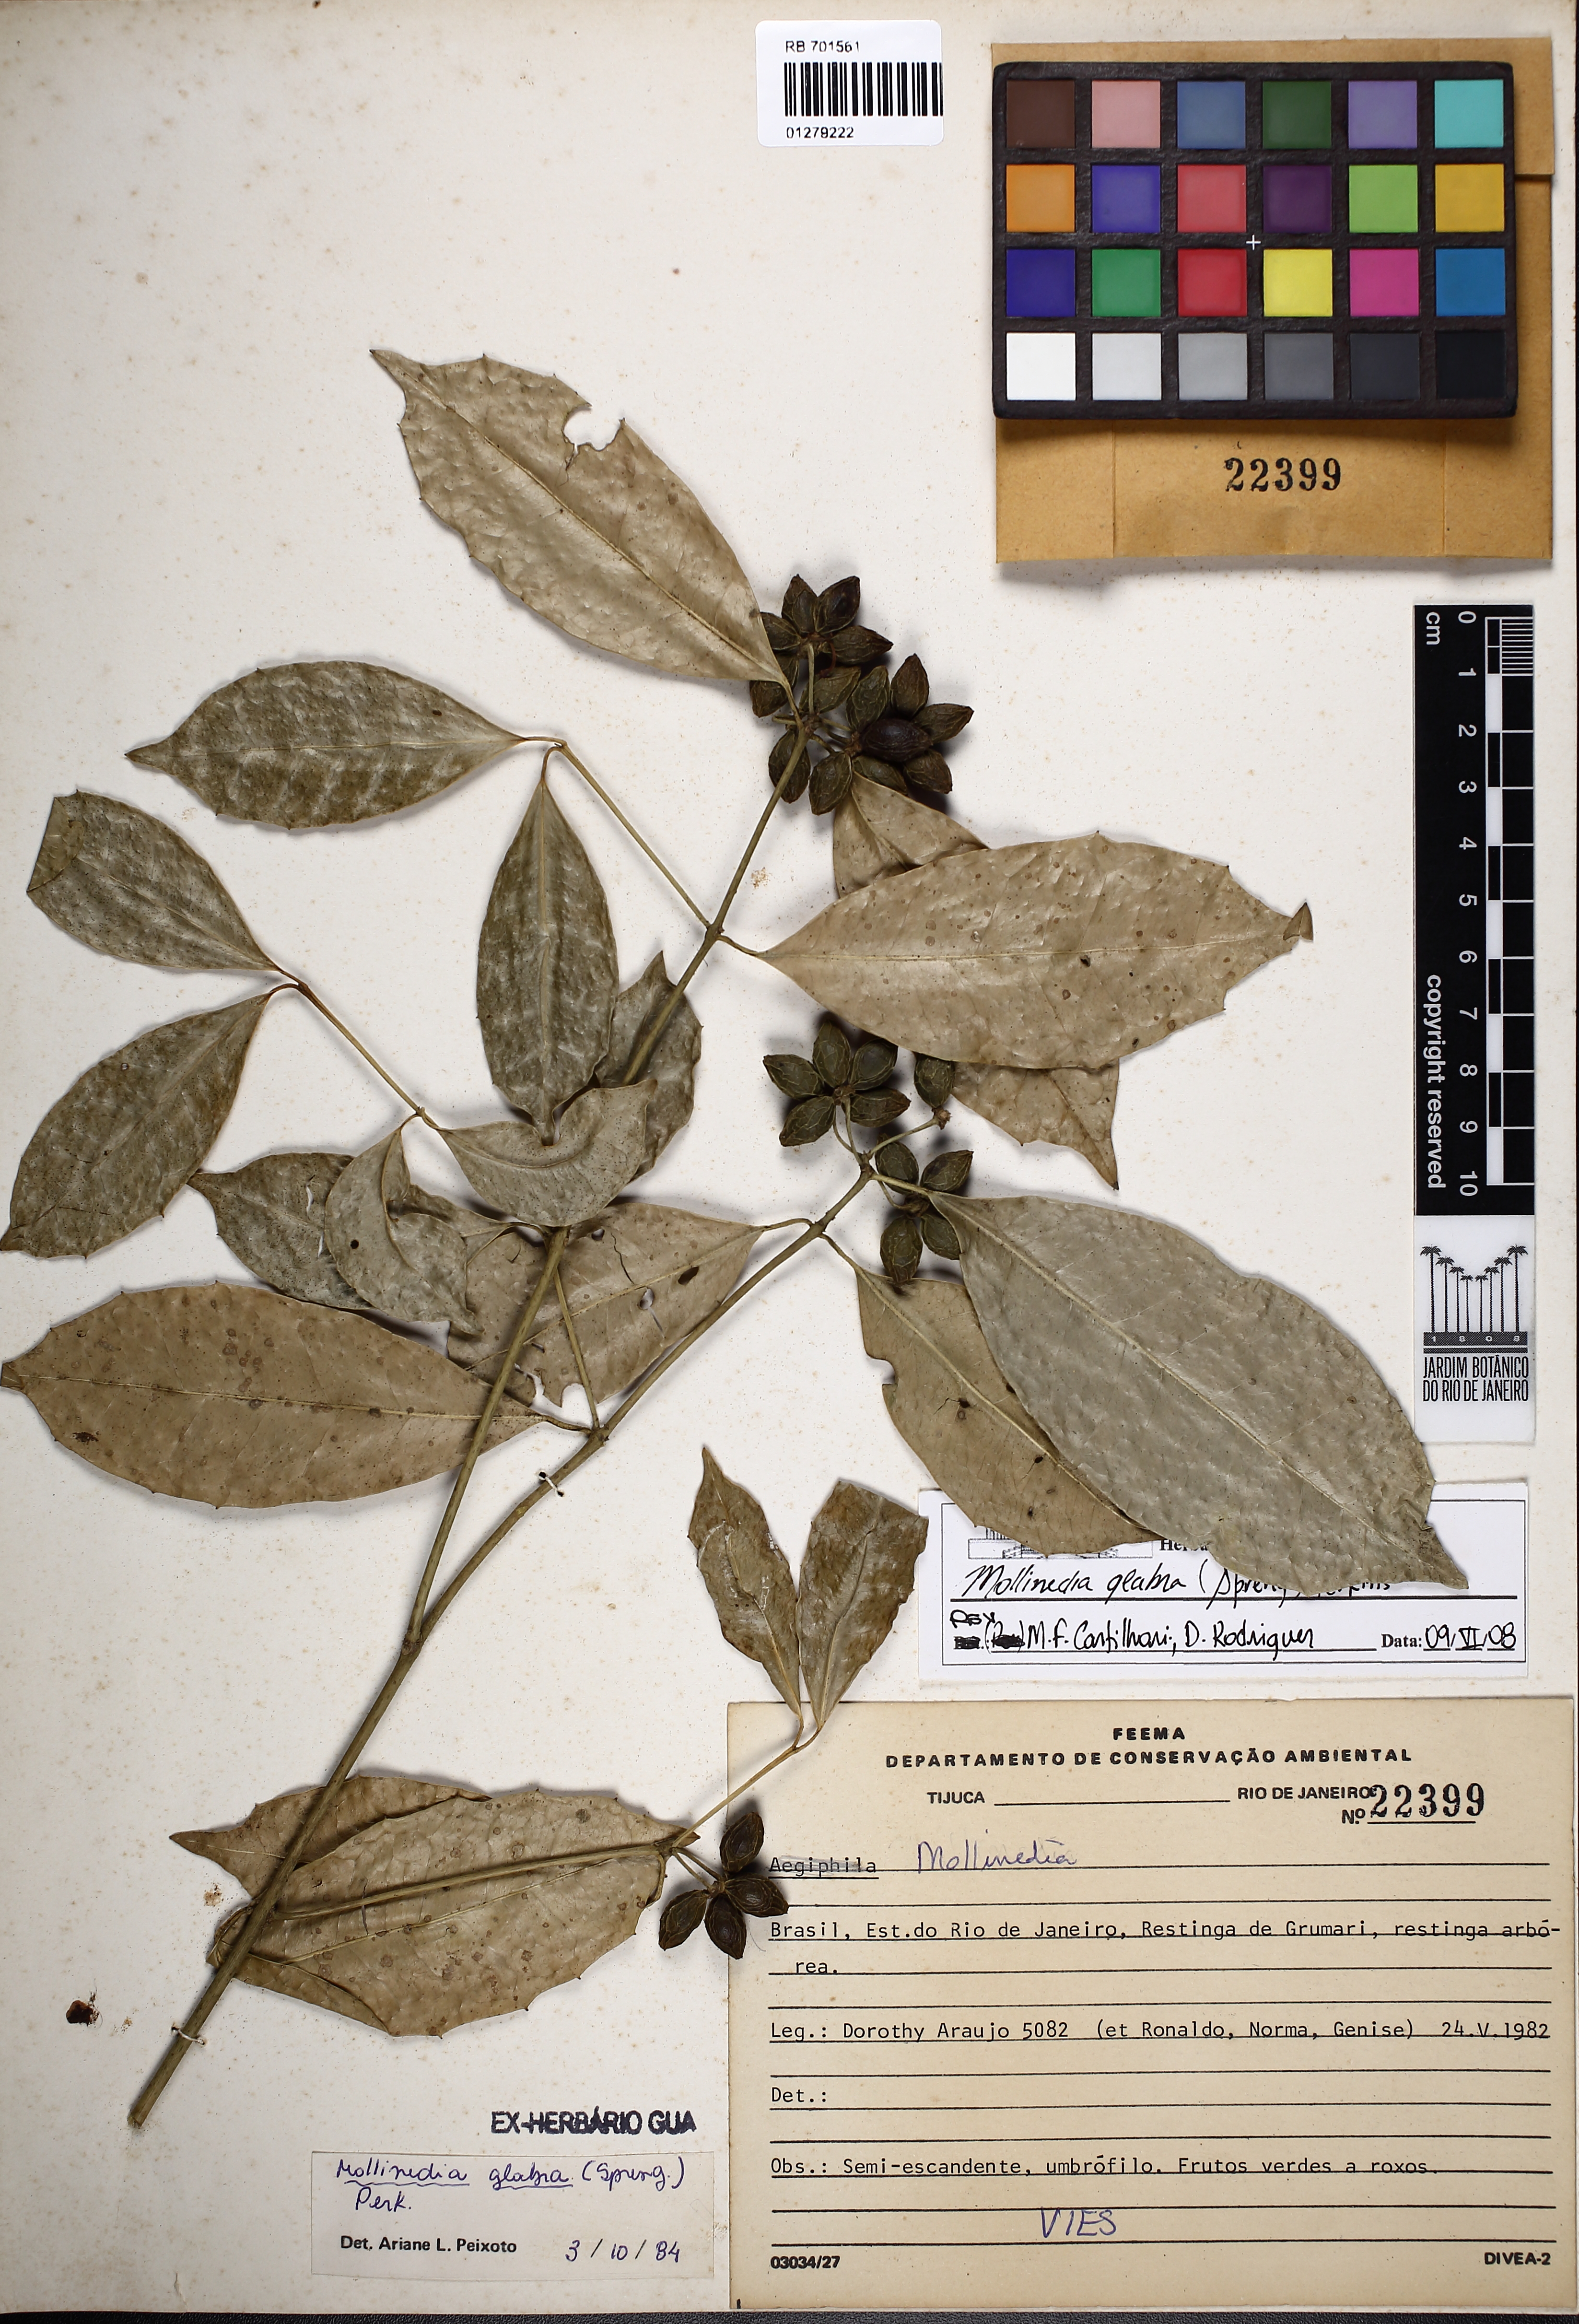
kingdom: Plantae
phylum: Tracheophyta
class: Magnoliopsida
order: Laurales
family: Monimiaceae
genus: Mollinedia
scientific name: Mollinedia glabra
